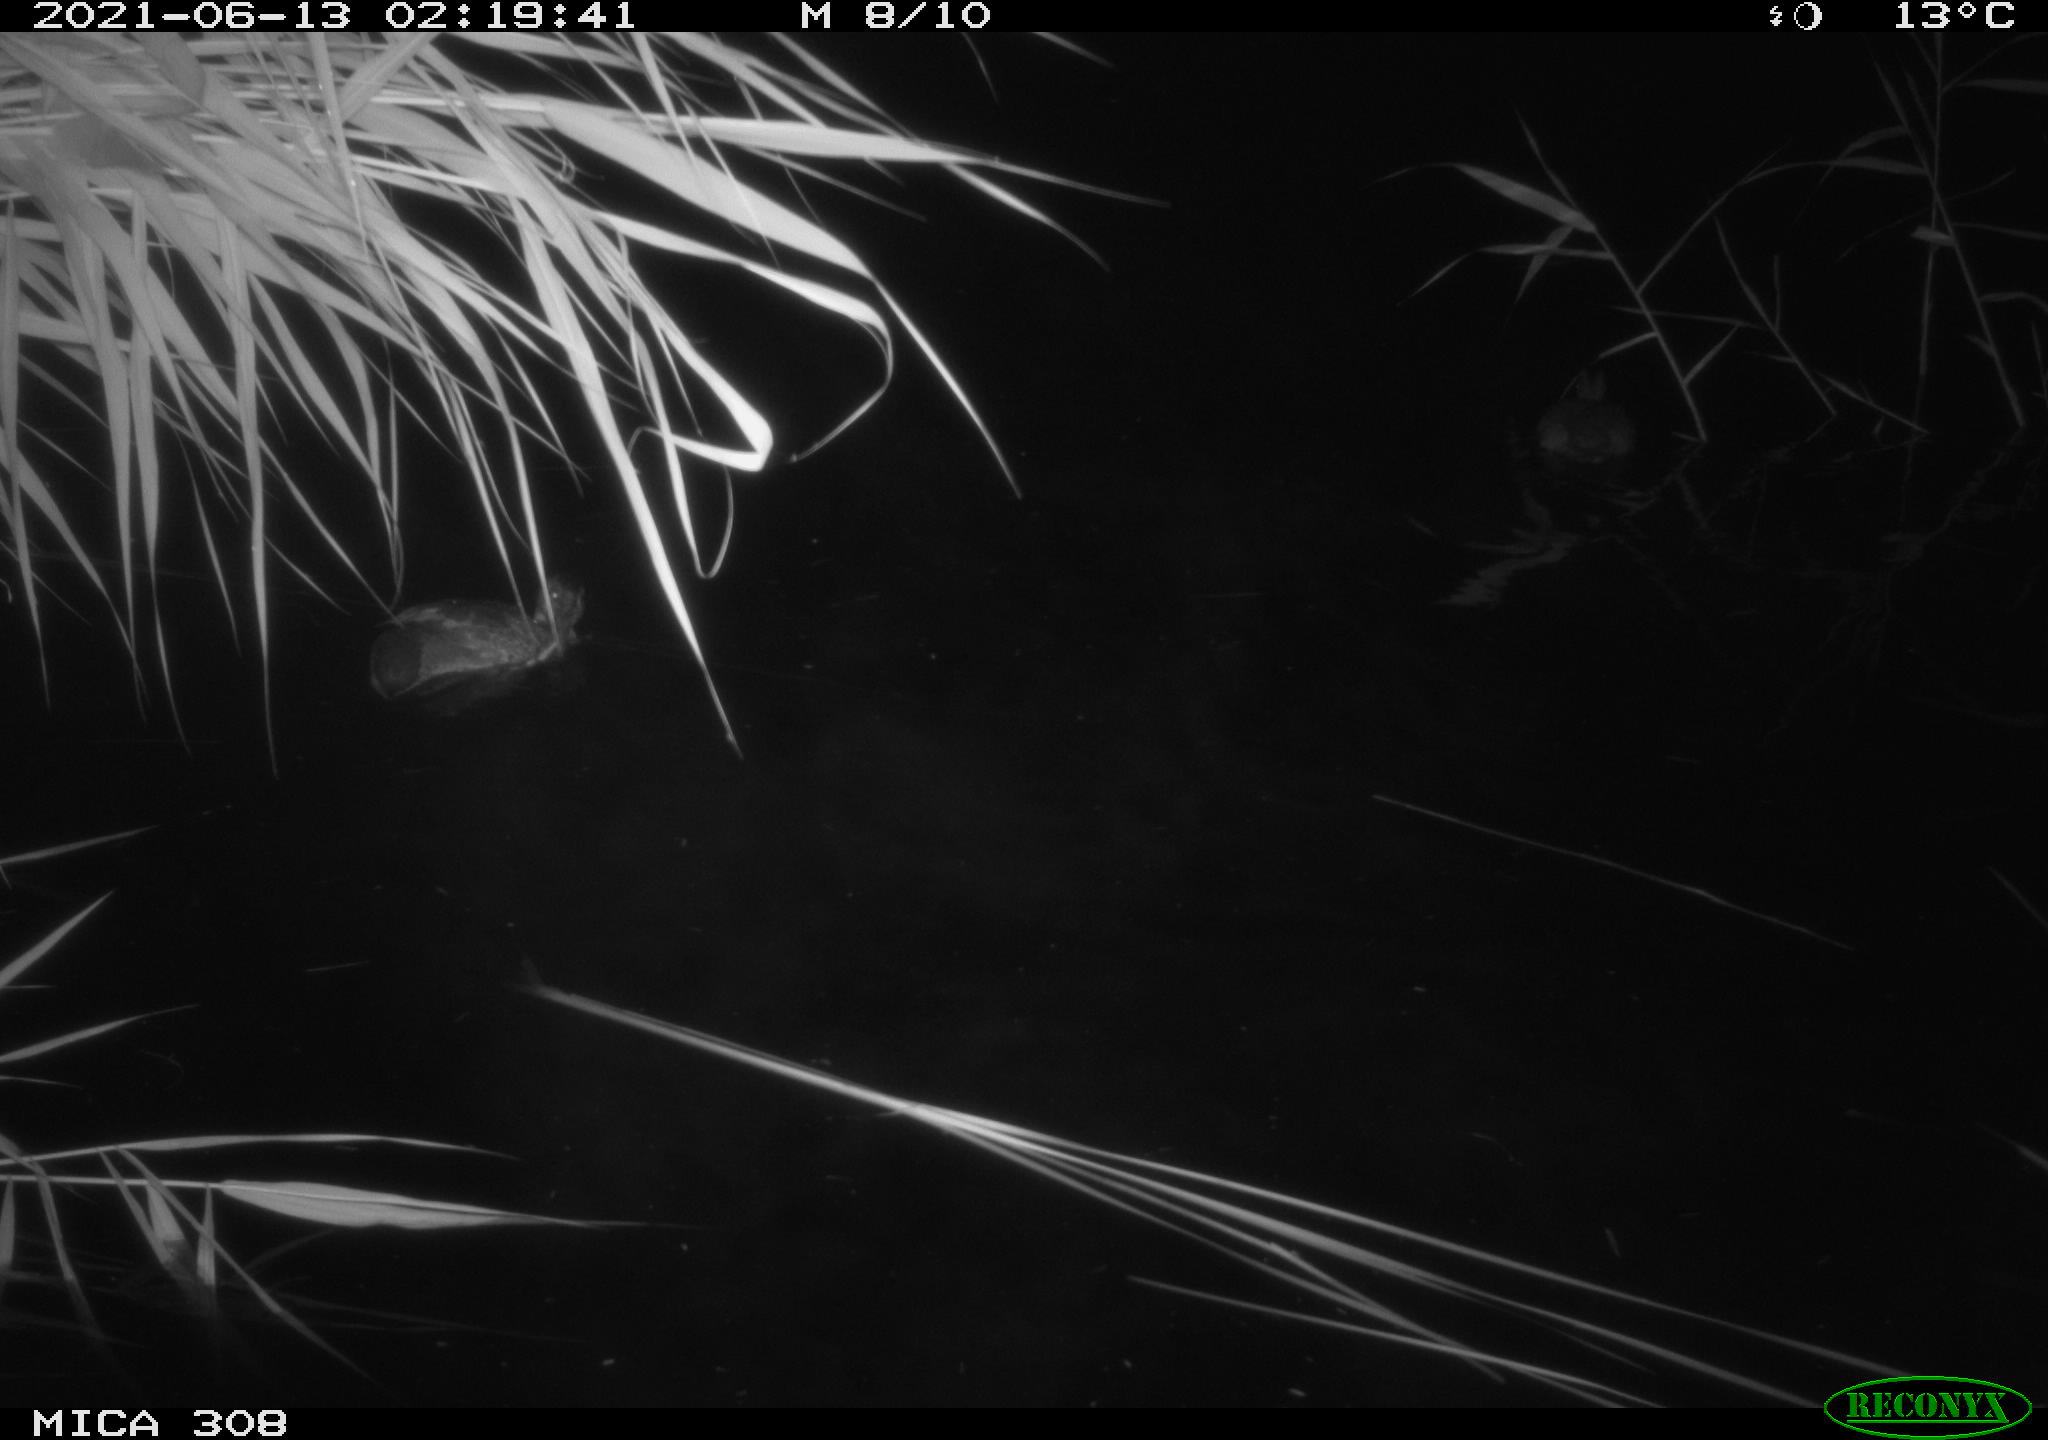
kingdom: Animalia
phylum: Chordata
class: Aves
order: Anseriformes
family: Anatidae
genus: Anas
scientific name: Anas platyrhynchos
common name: Mallard
